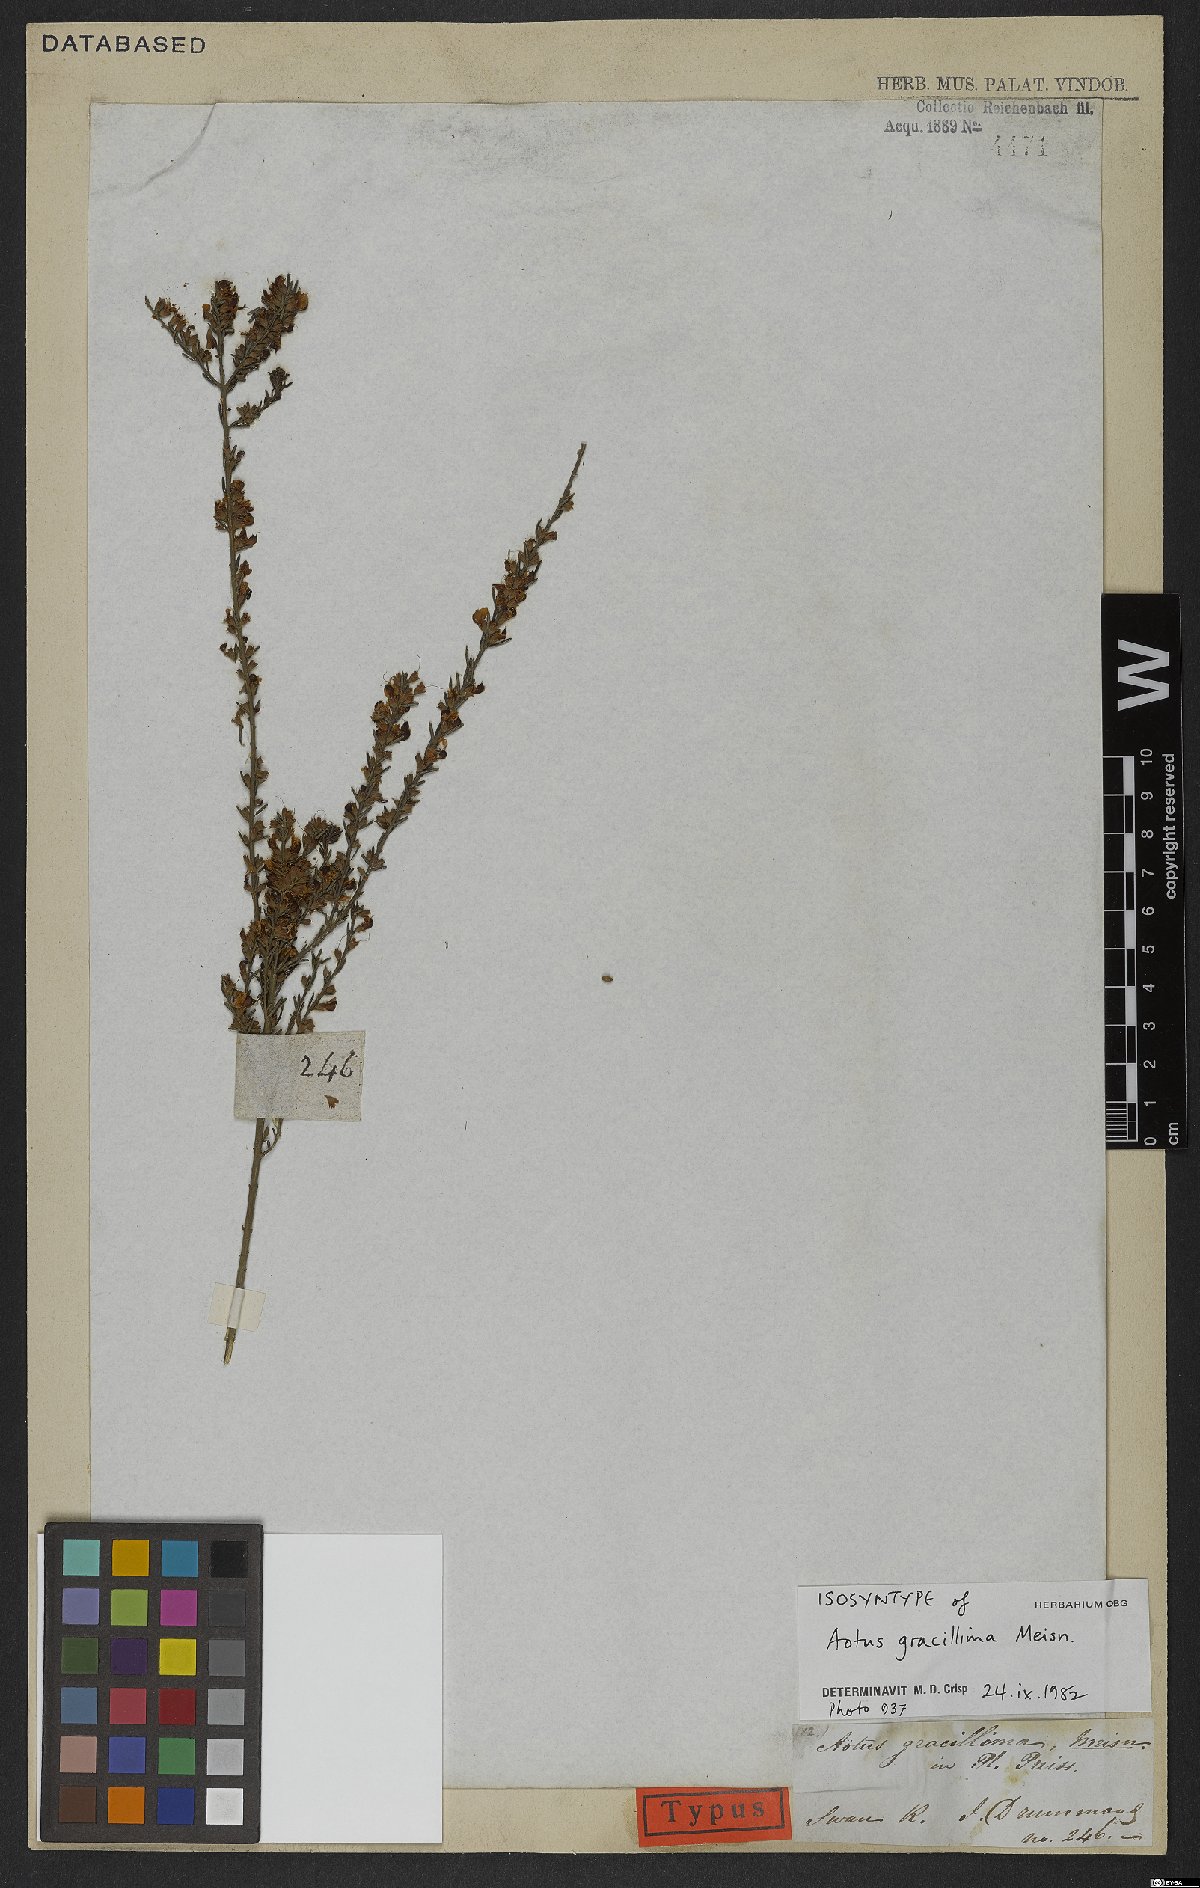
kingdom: Plantae
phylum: Tracheophyta
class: Magnoliopsida
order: Fabales
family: Fabaceae
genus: Aotus
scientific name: Aotus gracillima
